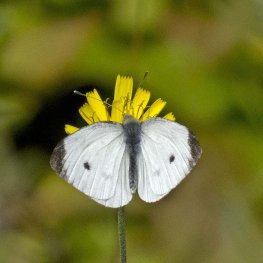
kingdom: Animalia
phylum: Arthropoda
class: Insecta
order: Lepidoptera
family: Pieridae
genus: Pieris
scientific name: Pieris rapae
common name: Cabbage White
